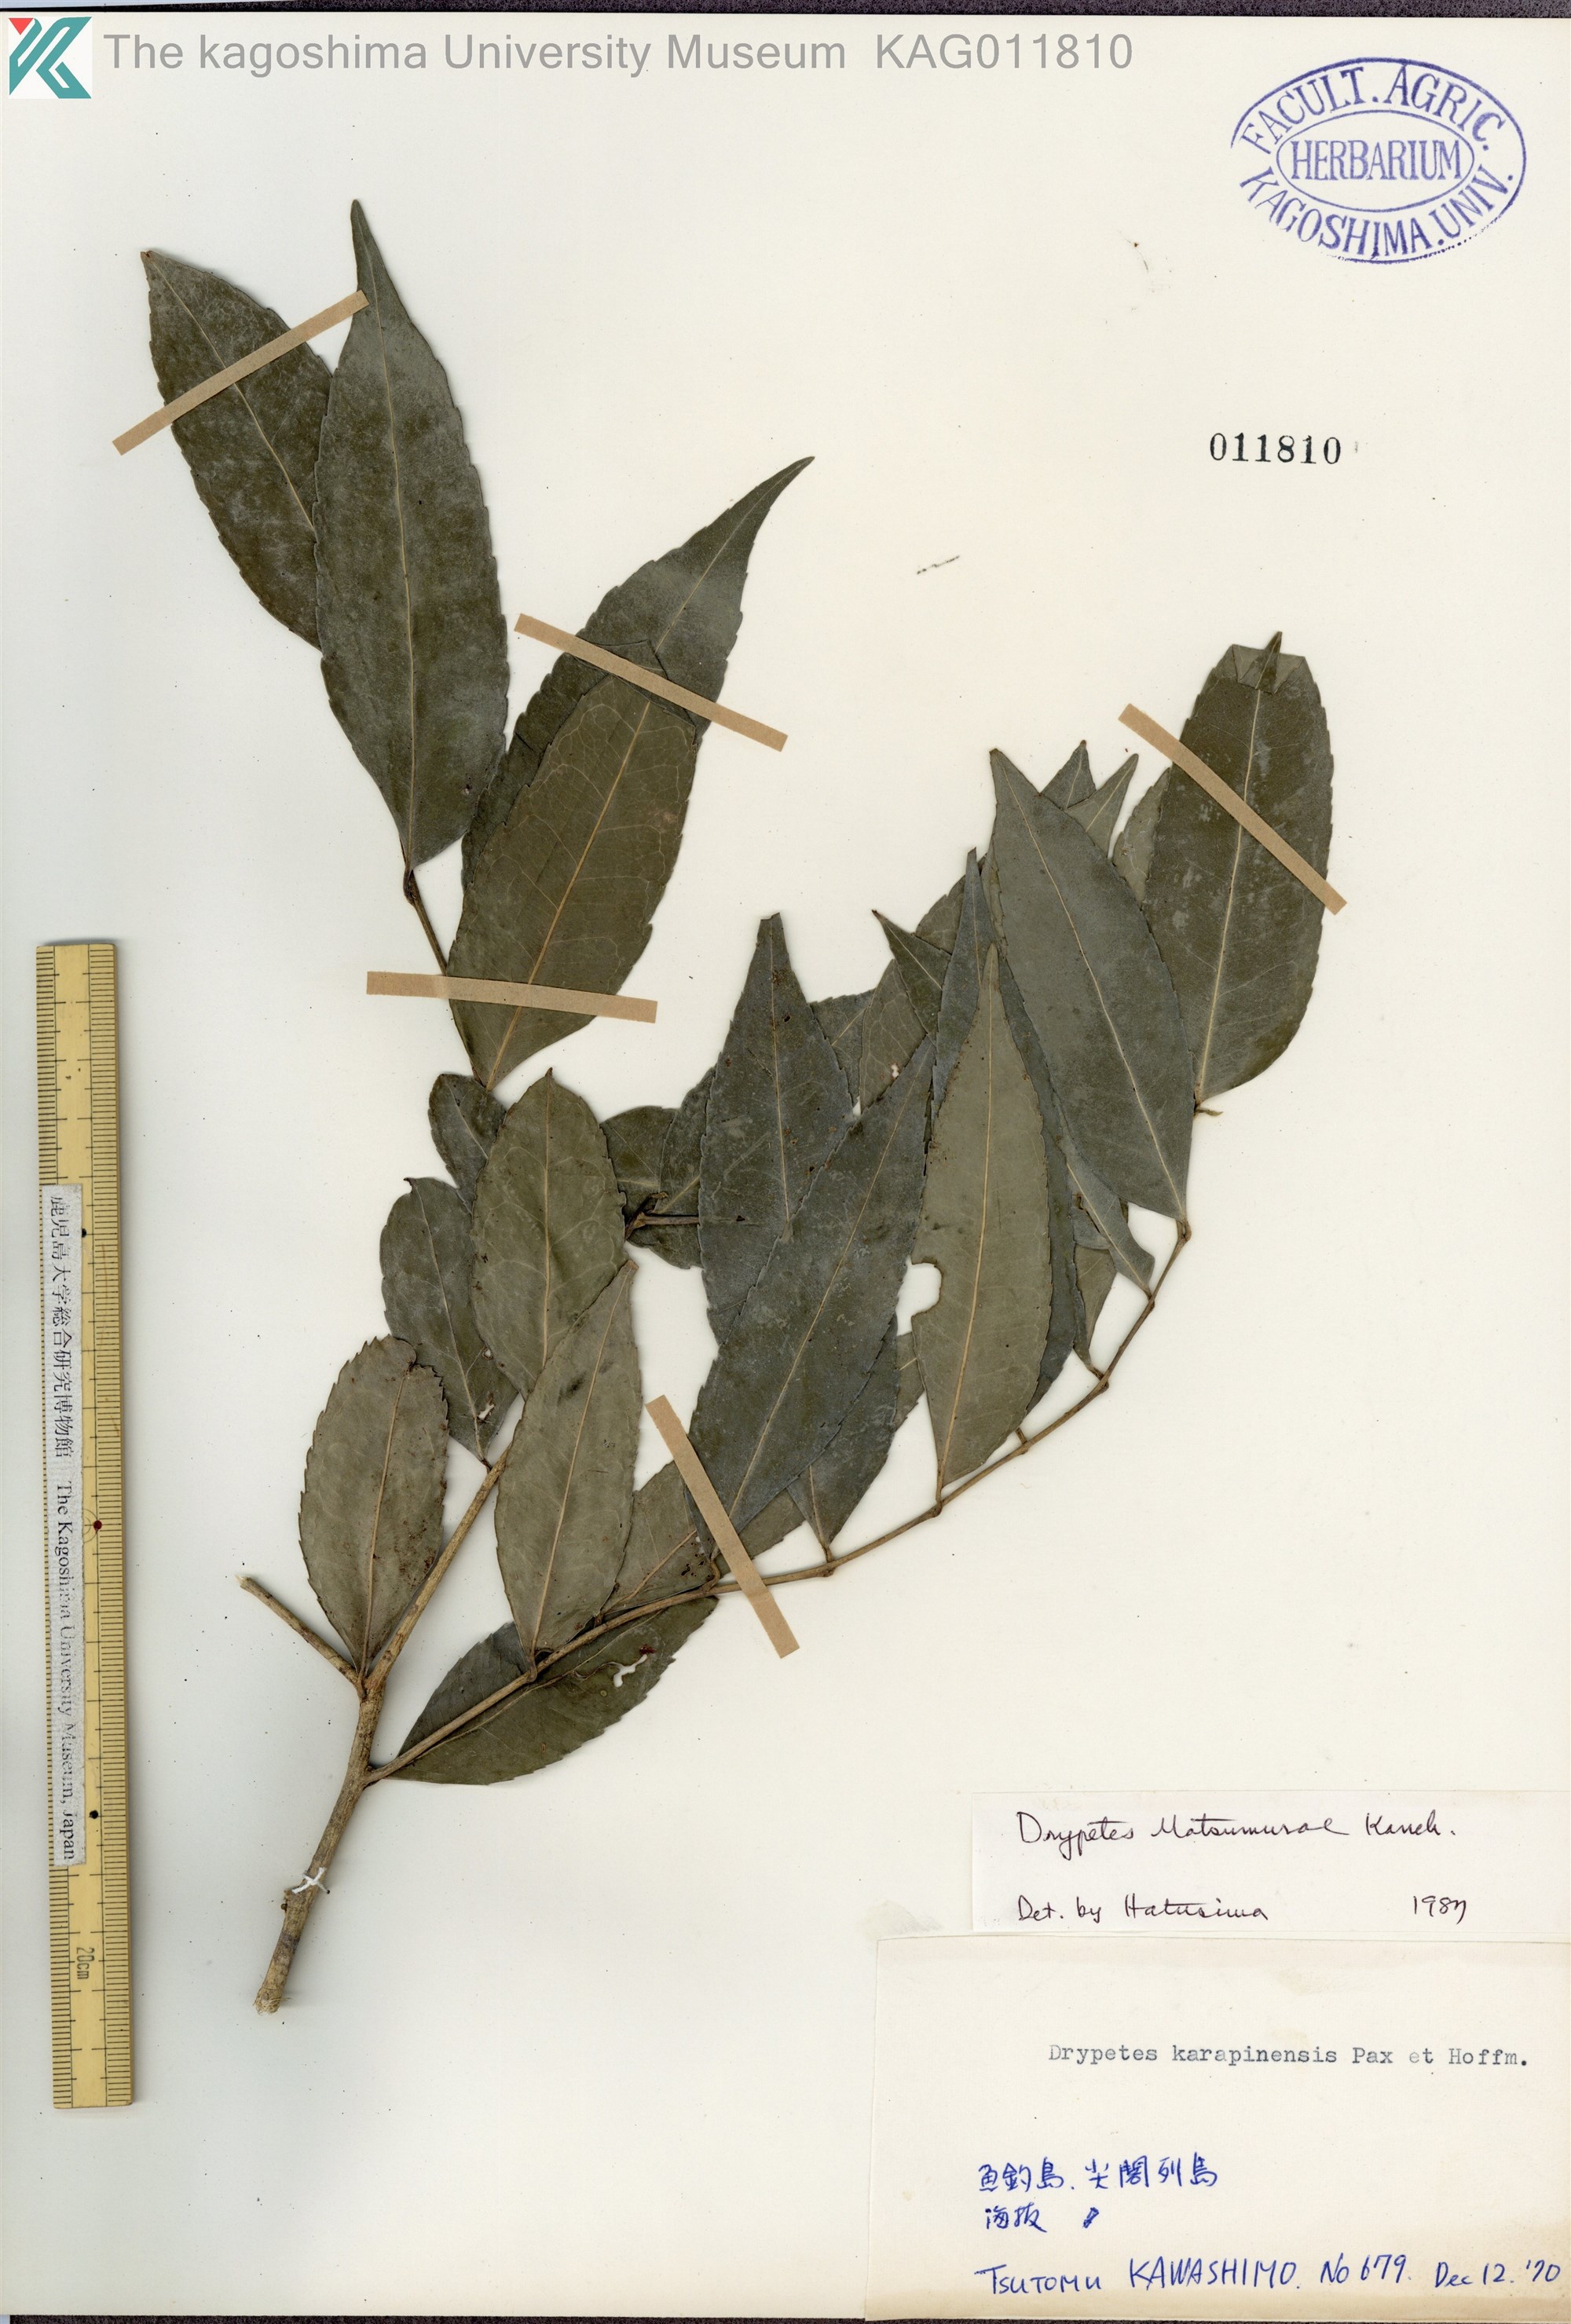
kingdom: Plantae
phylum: Tracheophyta
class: Magnoliopsida
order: Malpighiales
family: Putranjivaceae
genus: Putranjiva
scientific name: Putranjiva matsumurae
